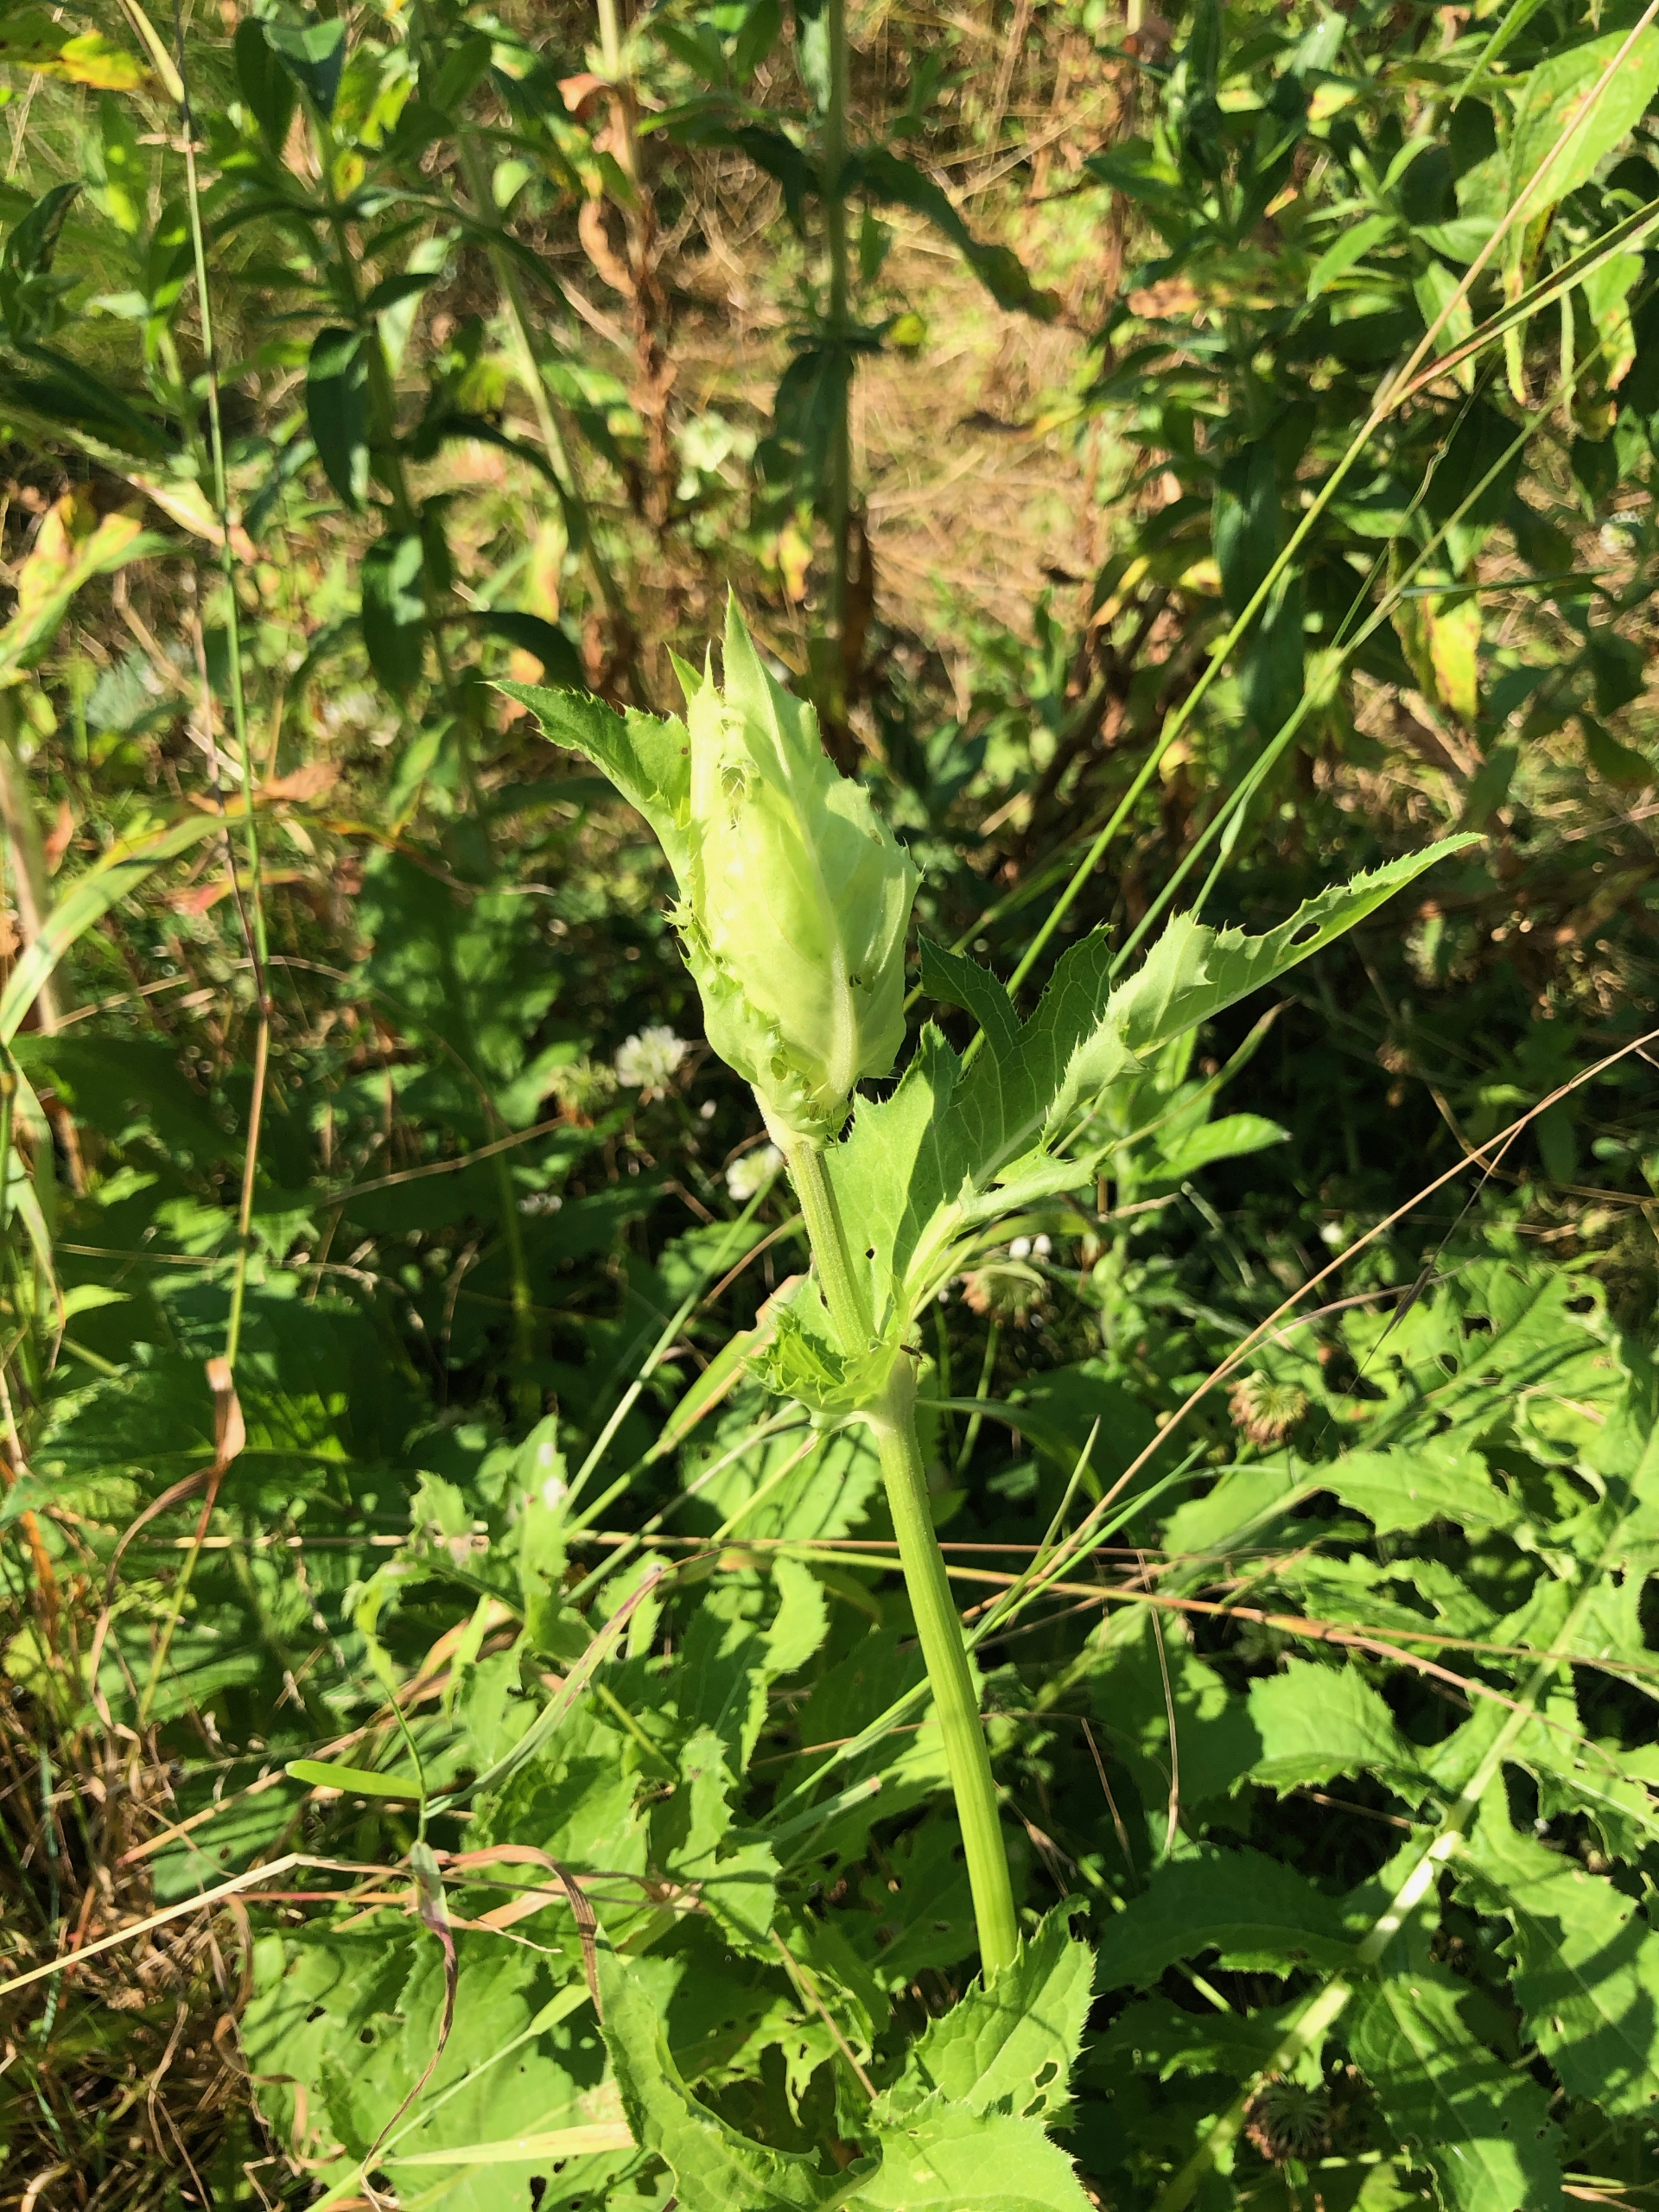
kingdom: Plantae
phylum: Tracheophyta
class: Magnoliopsida
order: Asterales
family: Asteraceae
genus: Cirsium
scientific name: Cirsium oleraceum
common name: Kål-tidsel
